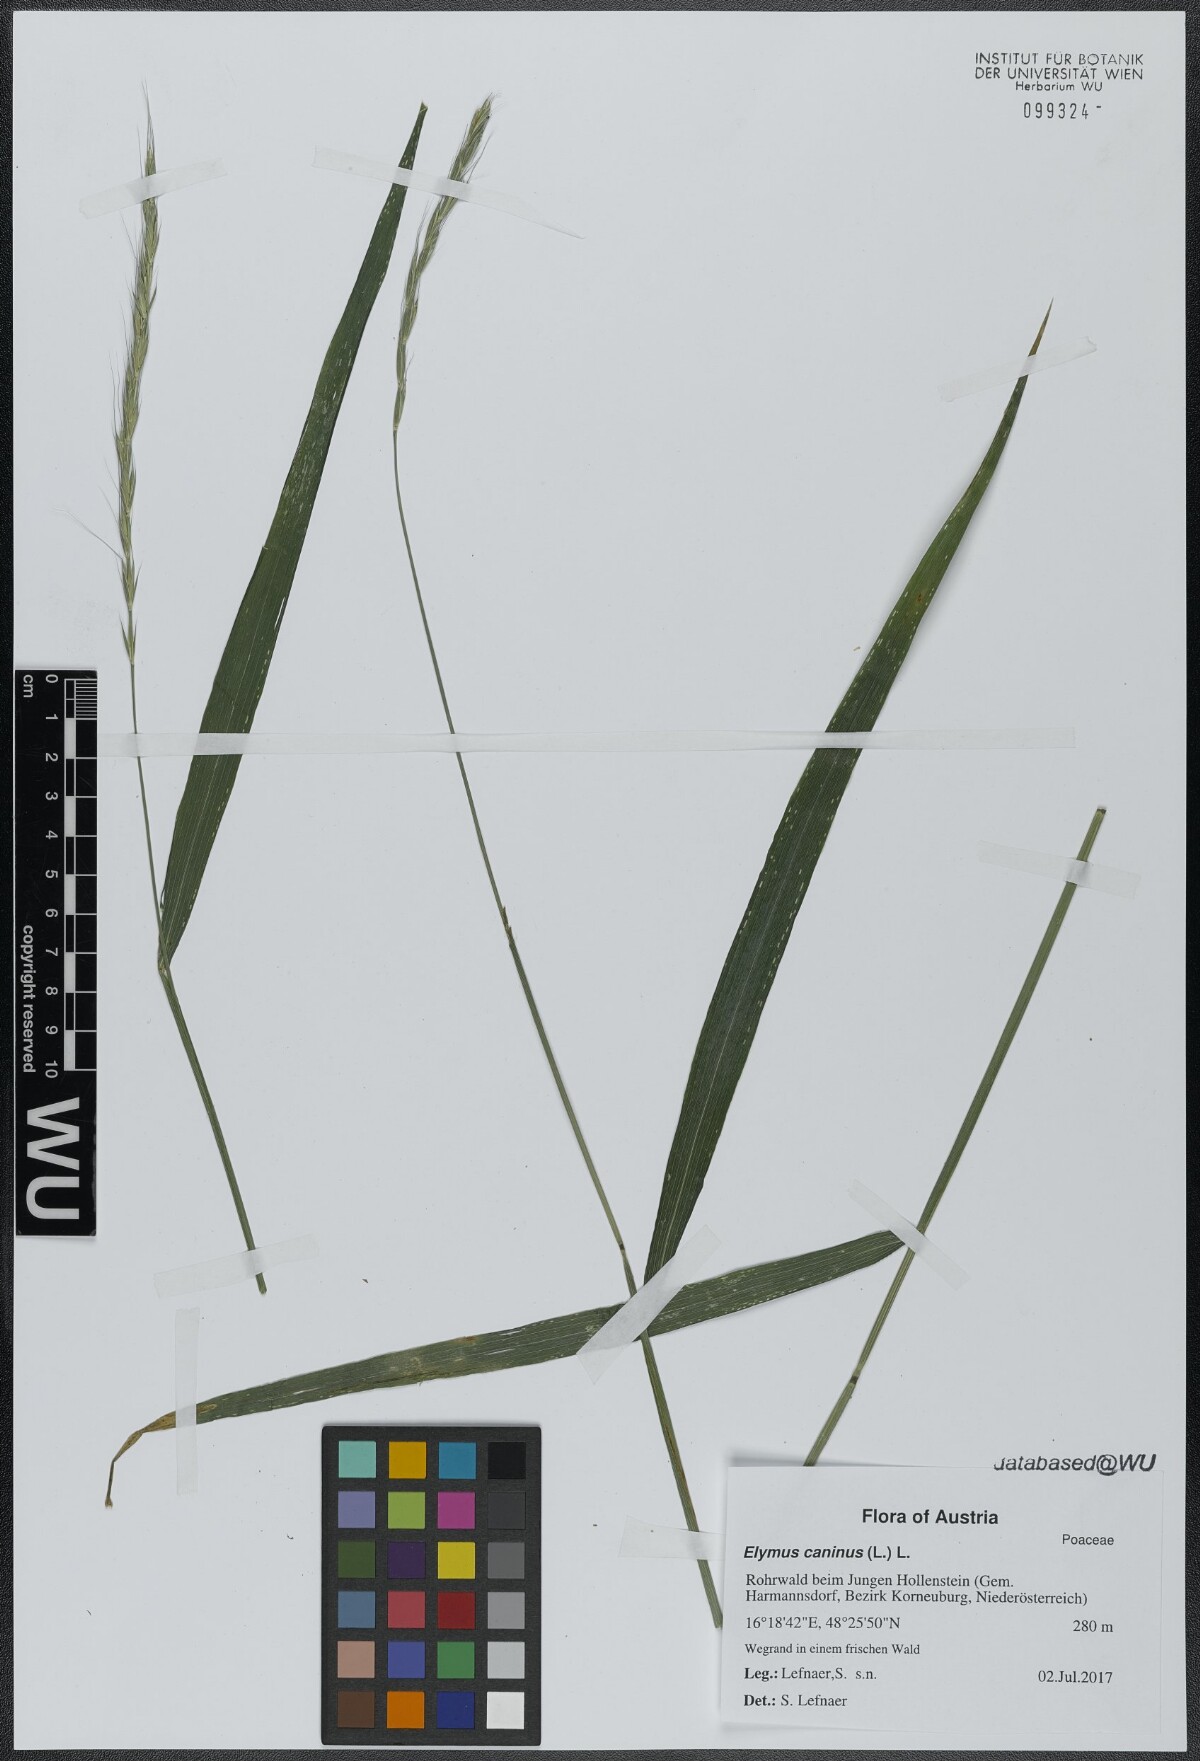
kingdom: Plantae
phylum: Tracheophyta
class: Liliopsida
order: Poales
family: Poaceae
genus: Elymus
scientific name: Elymus caninus
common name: Bearded couch
